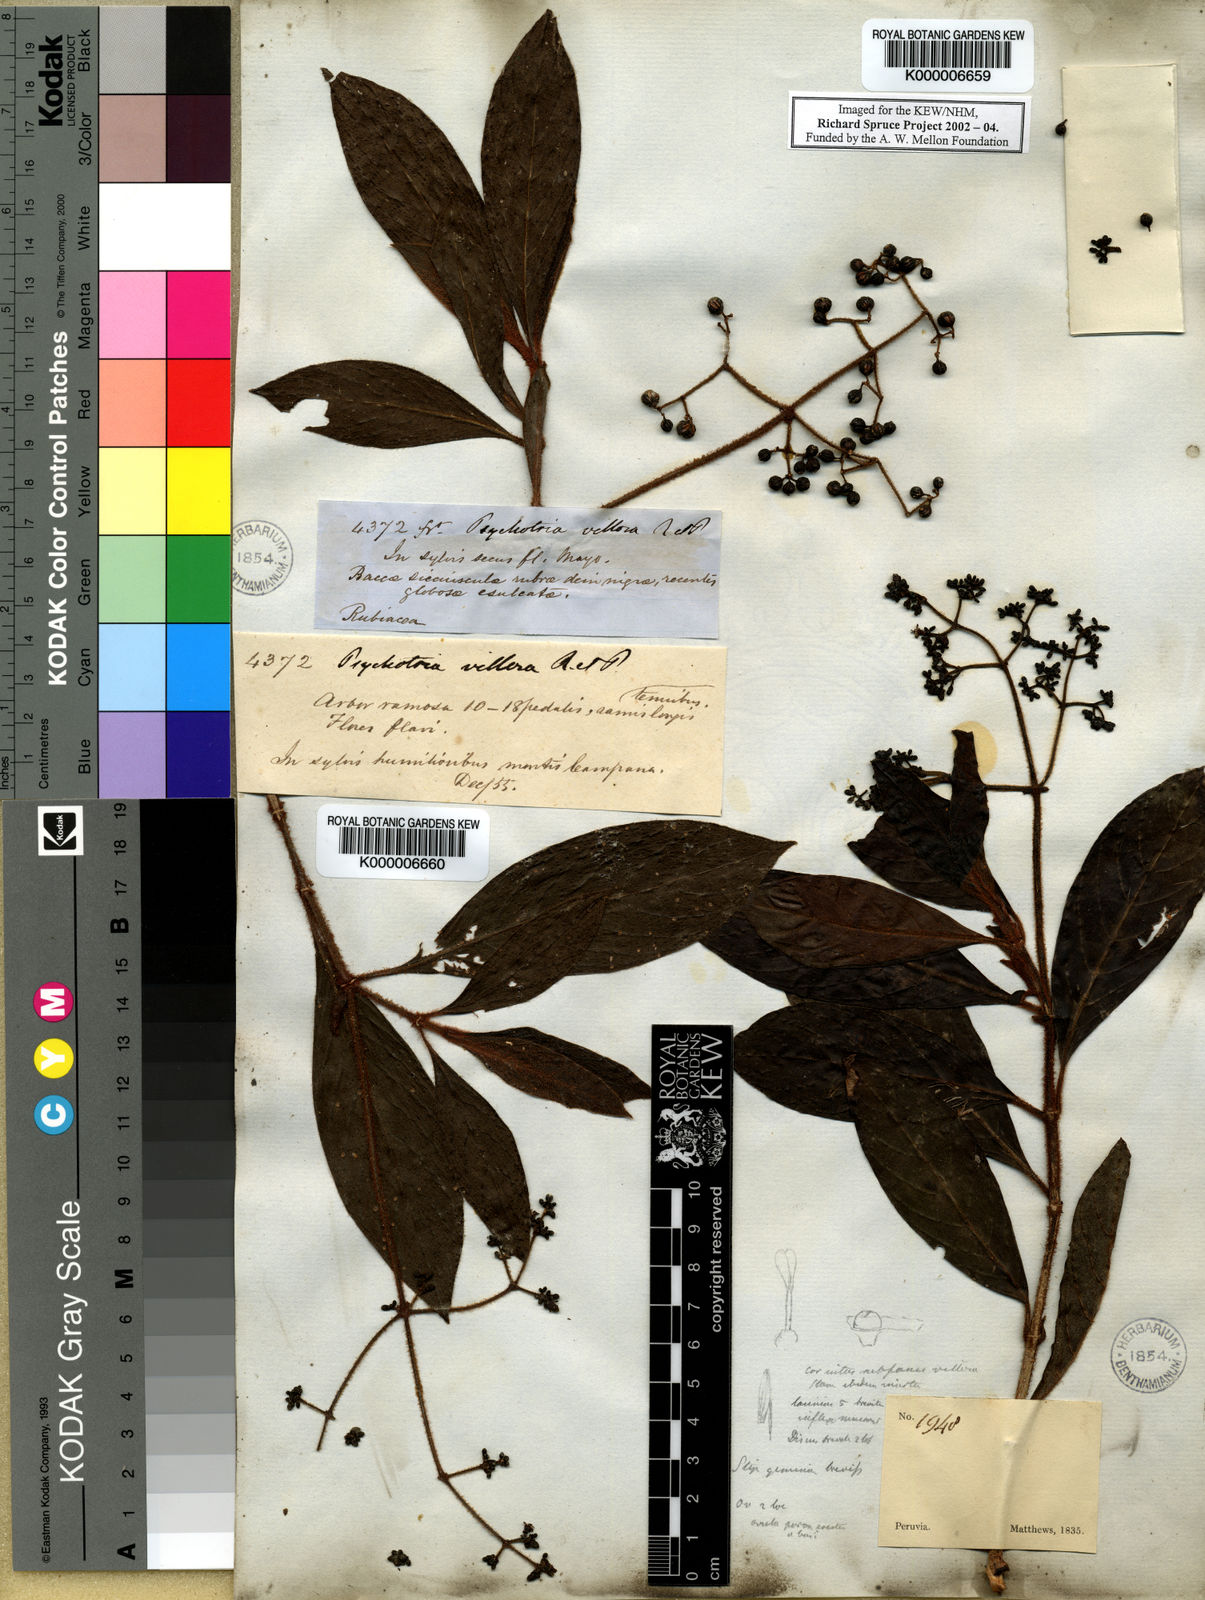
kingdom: Plantae
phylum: Tracheophyta
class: Magnoliopsida
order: Gentianales
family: Rubiaceae
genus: Psychotria
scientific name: Psychotria villosa
